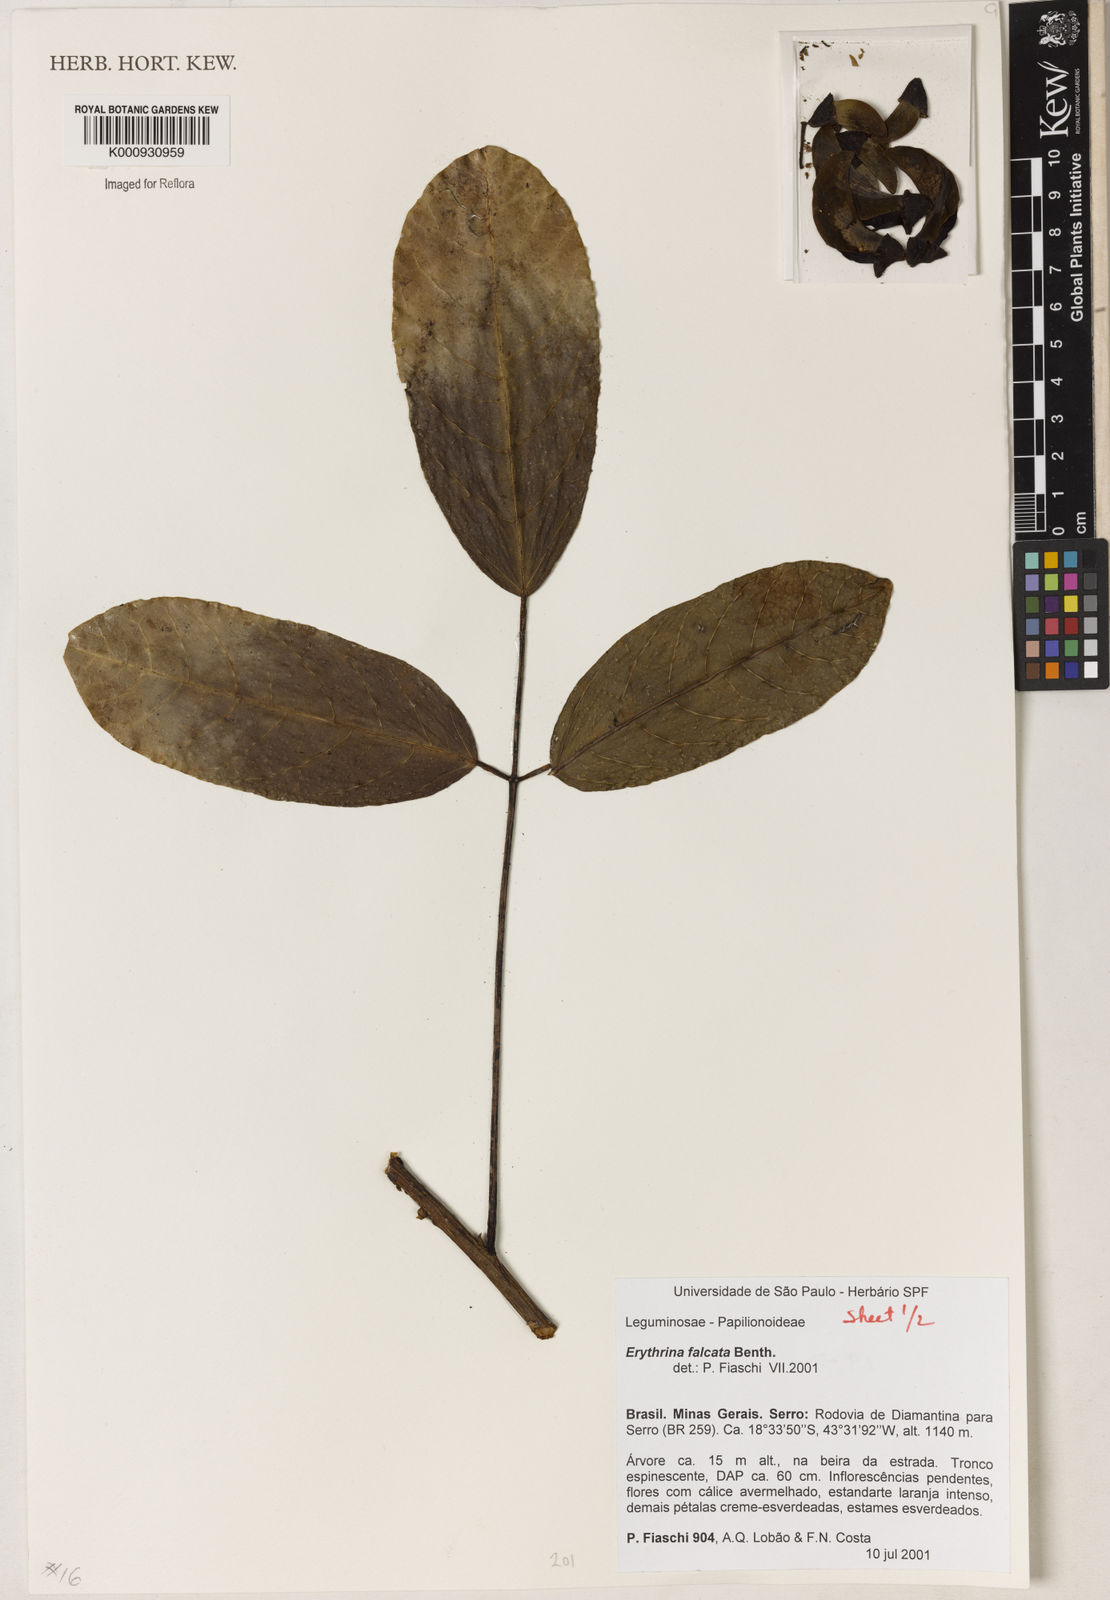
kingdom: Plantae
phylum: Tracheophyta
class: Magnoliopsida
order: Fabales
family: Fabaceae
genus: Erythrina
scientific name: Erythrina falcata
